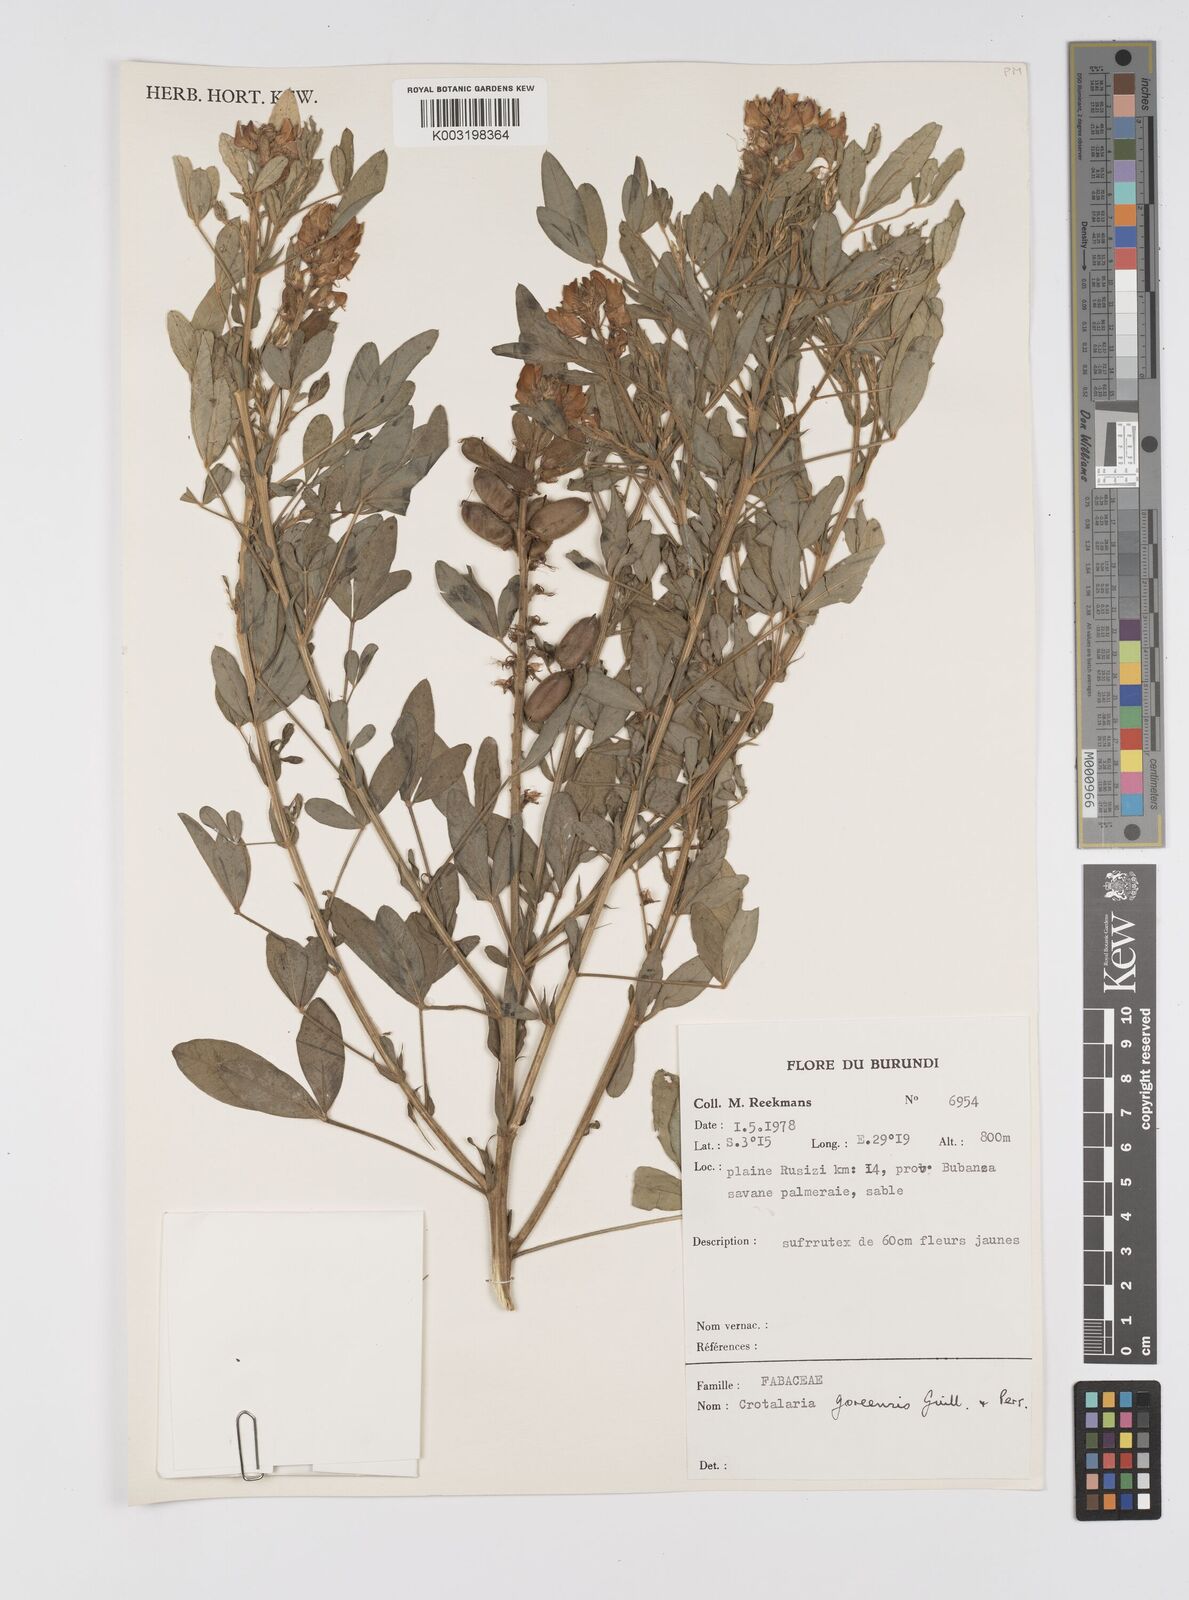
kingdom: Plantae
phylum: Tracheophyta
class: Magnoliopsida
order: Fabales
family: Fabaceae
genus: Crotalaria
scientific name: Crotalaria goreensis
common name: Gambia-pea
